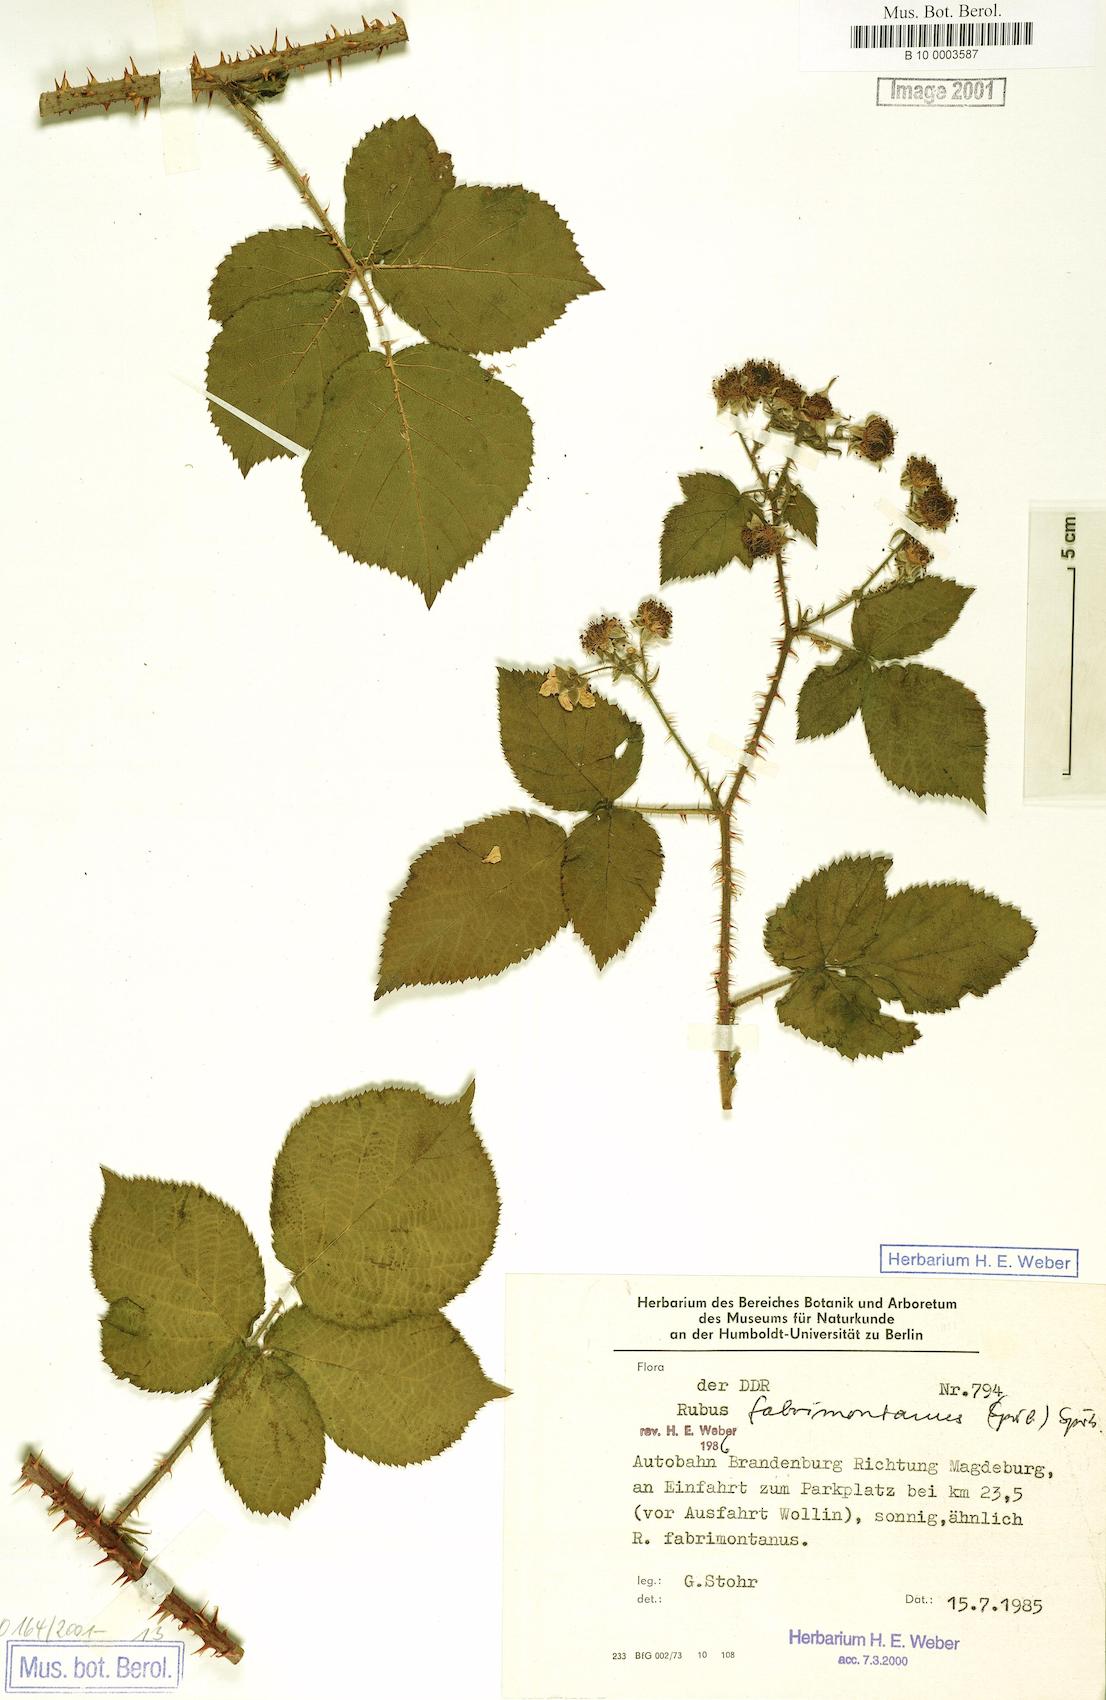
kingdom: Plantae
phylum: Tracheophyta
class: Magnoliopsida
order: Rosales
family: Rosaceae
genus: Rubus
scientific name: Rubus fabrimontanus
